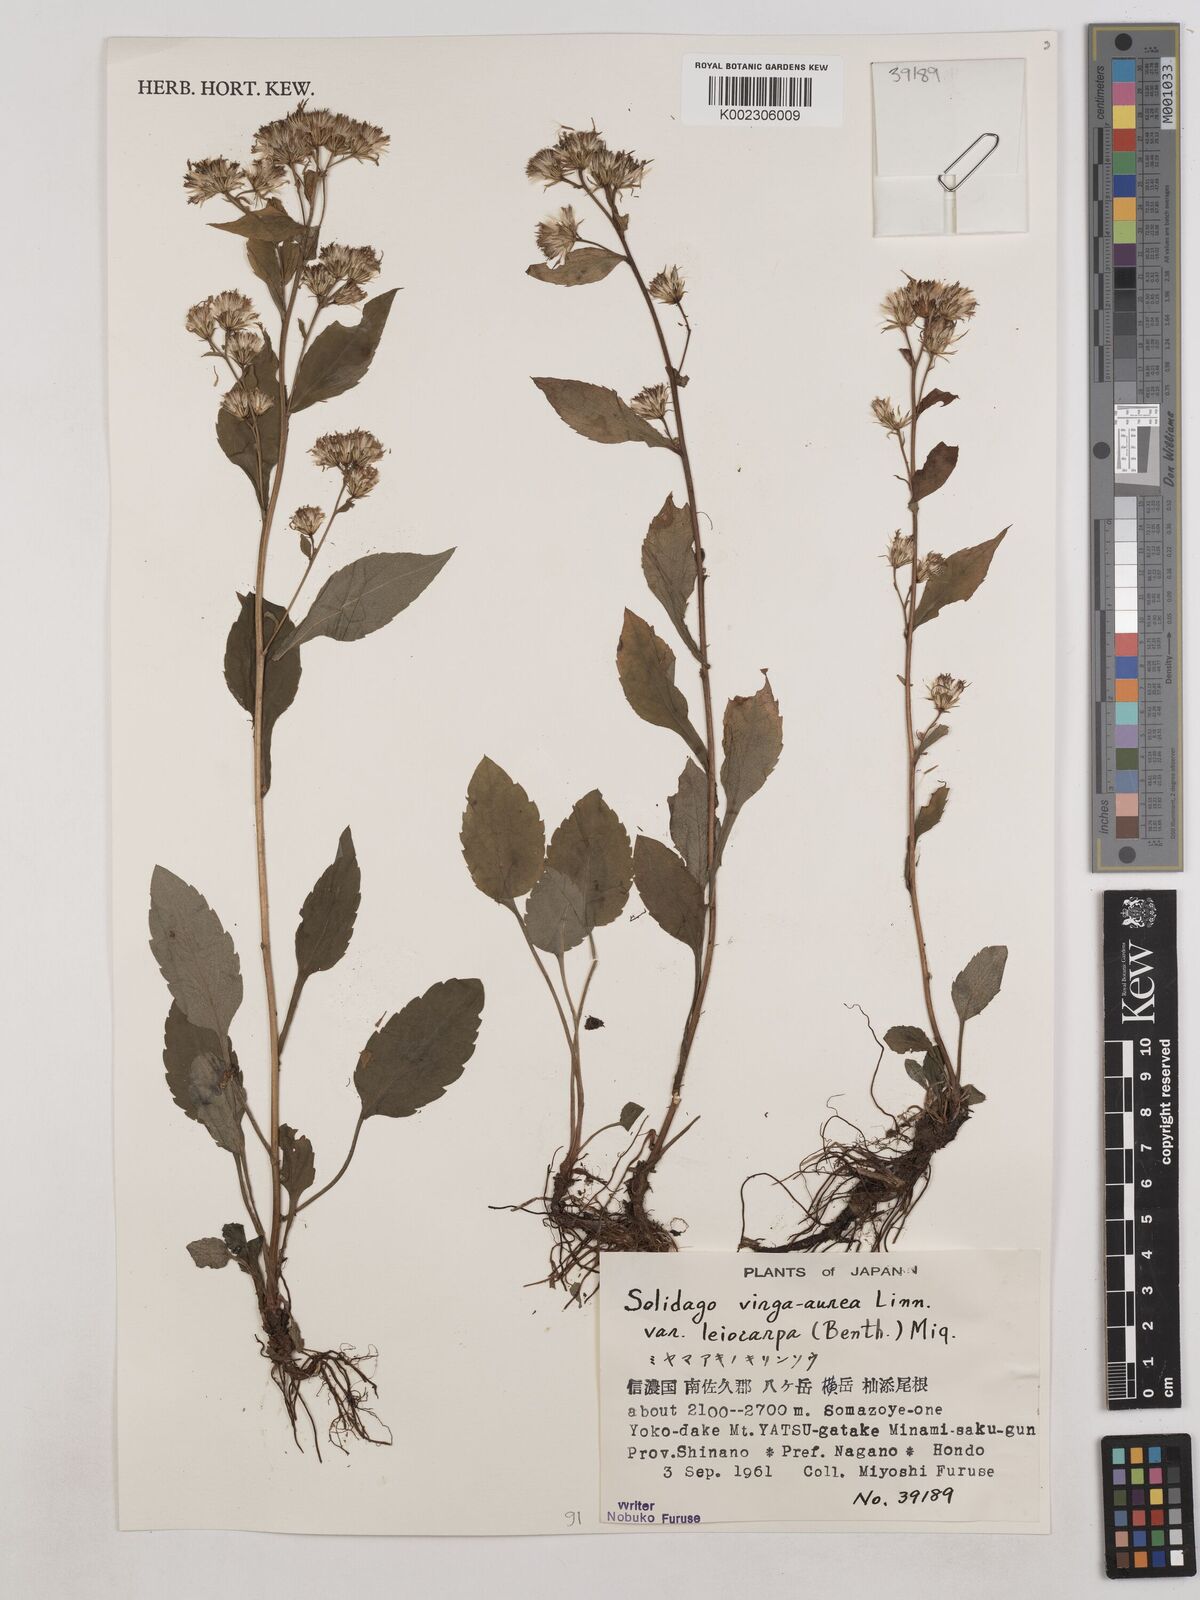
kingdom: Plantae
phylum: Tracheophyta
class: Magnoliopsida
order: Asterales
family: Asteraceae
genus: Solidago
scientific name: Solidago decurrens
